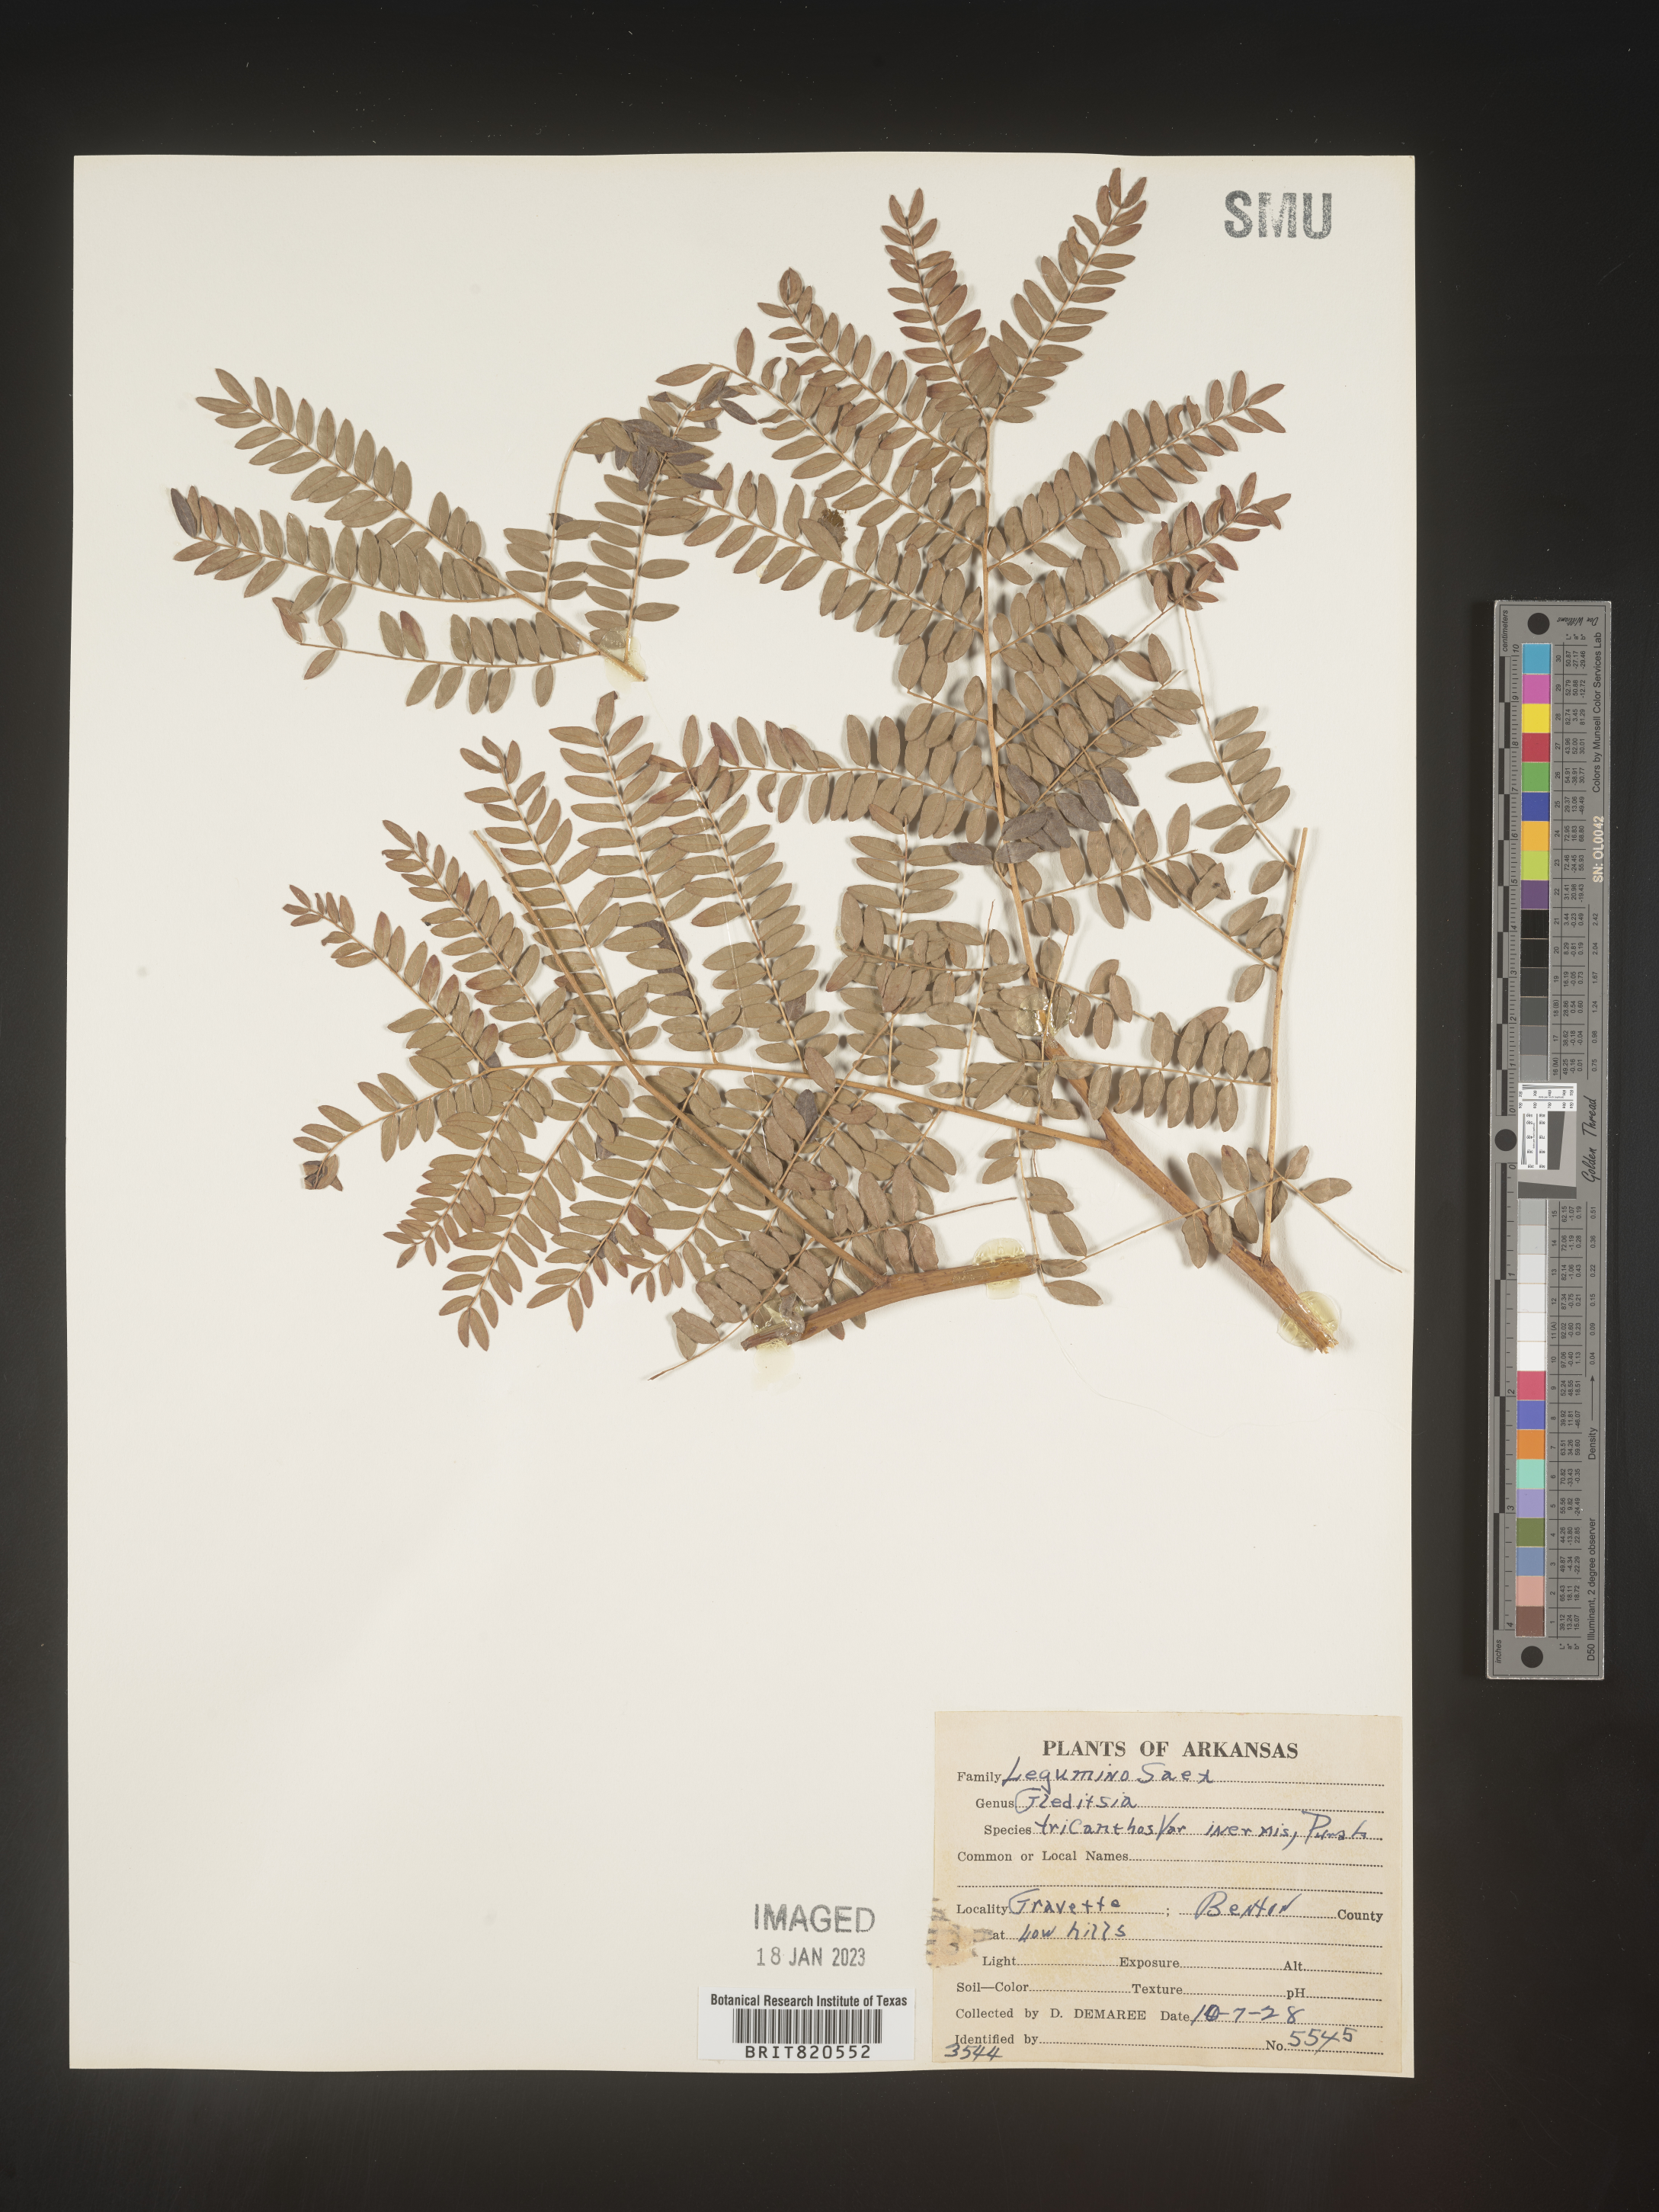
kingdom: Plantae
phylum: Tracheophyta
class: Magnoliopsida
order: Fabales
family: Fabaceae
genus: Gleditsia
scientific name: Gleditsia triacanthos
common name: Common honeylocust
